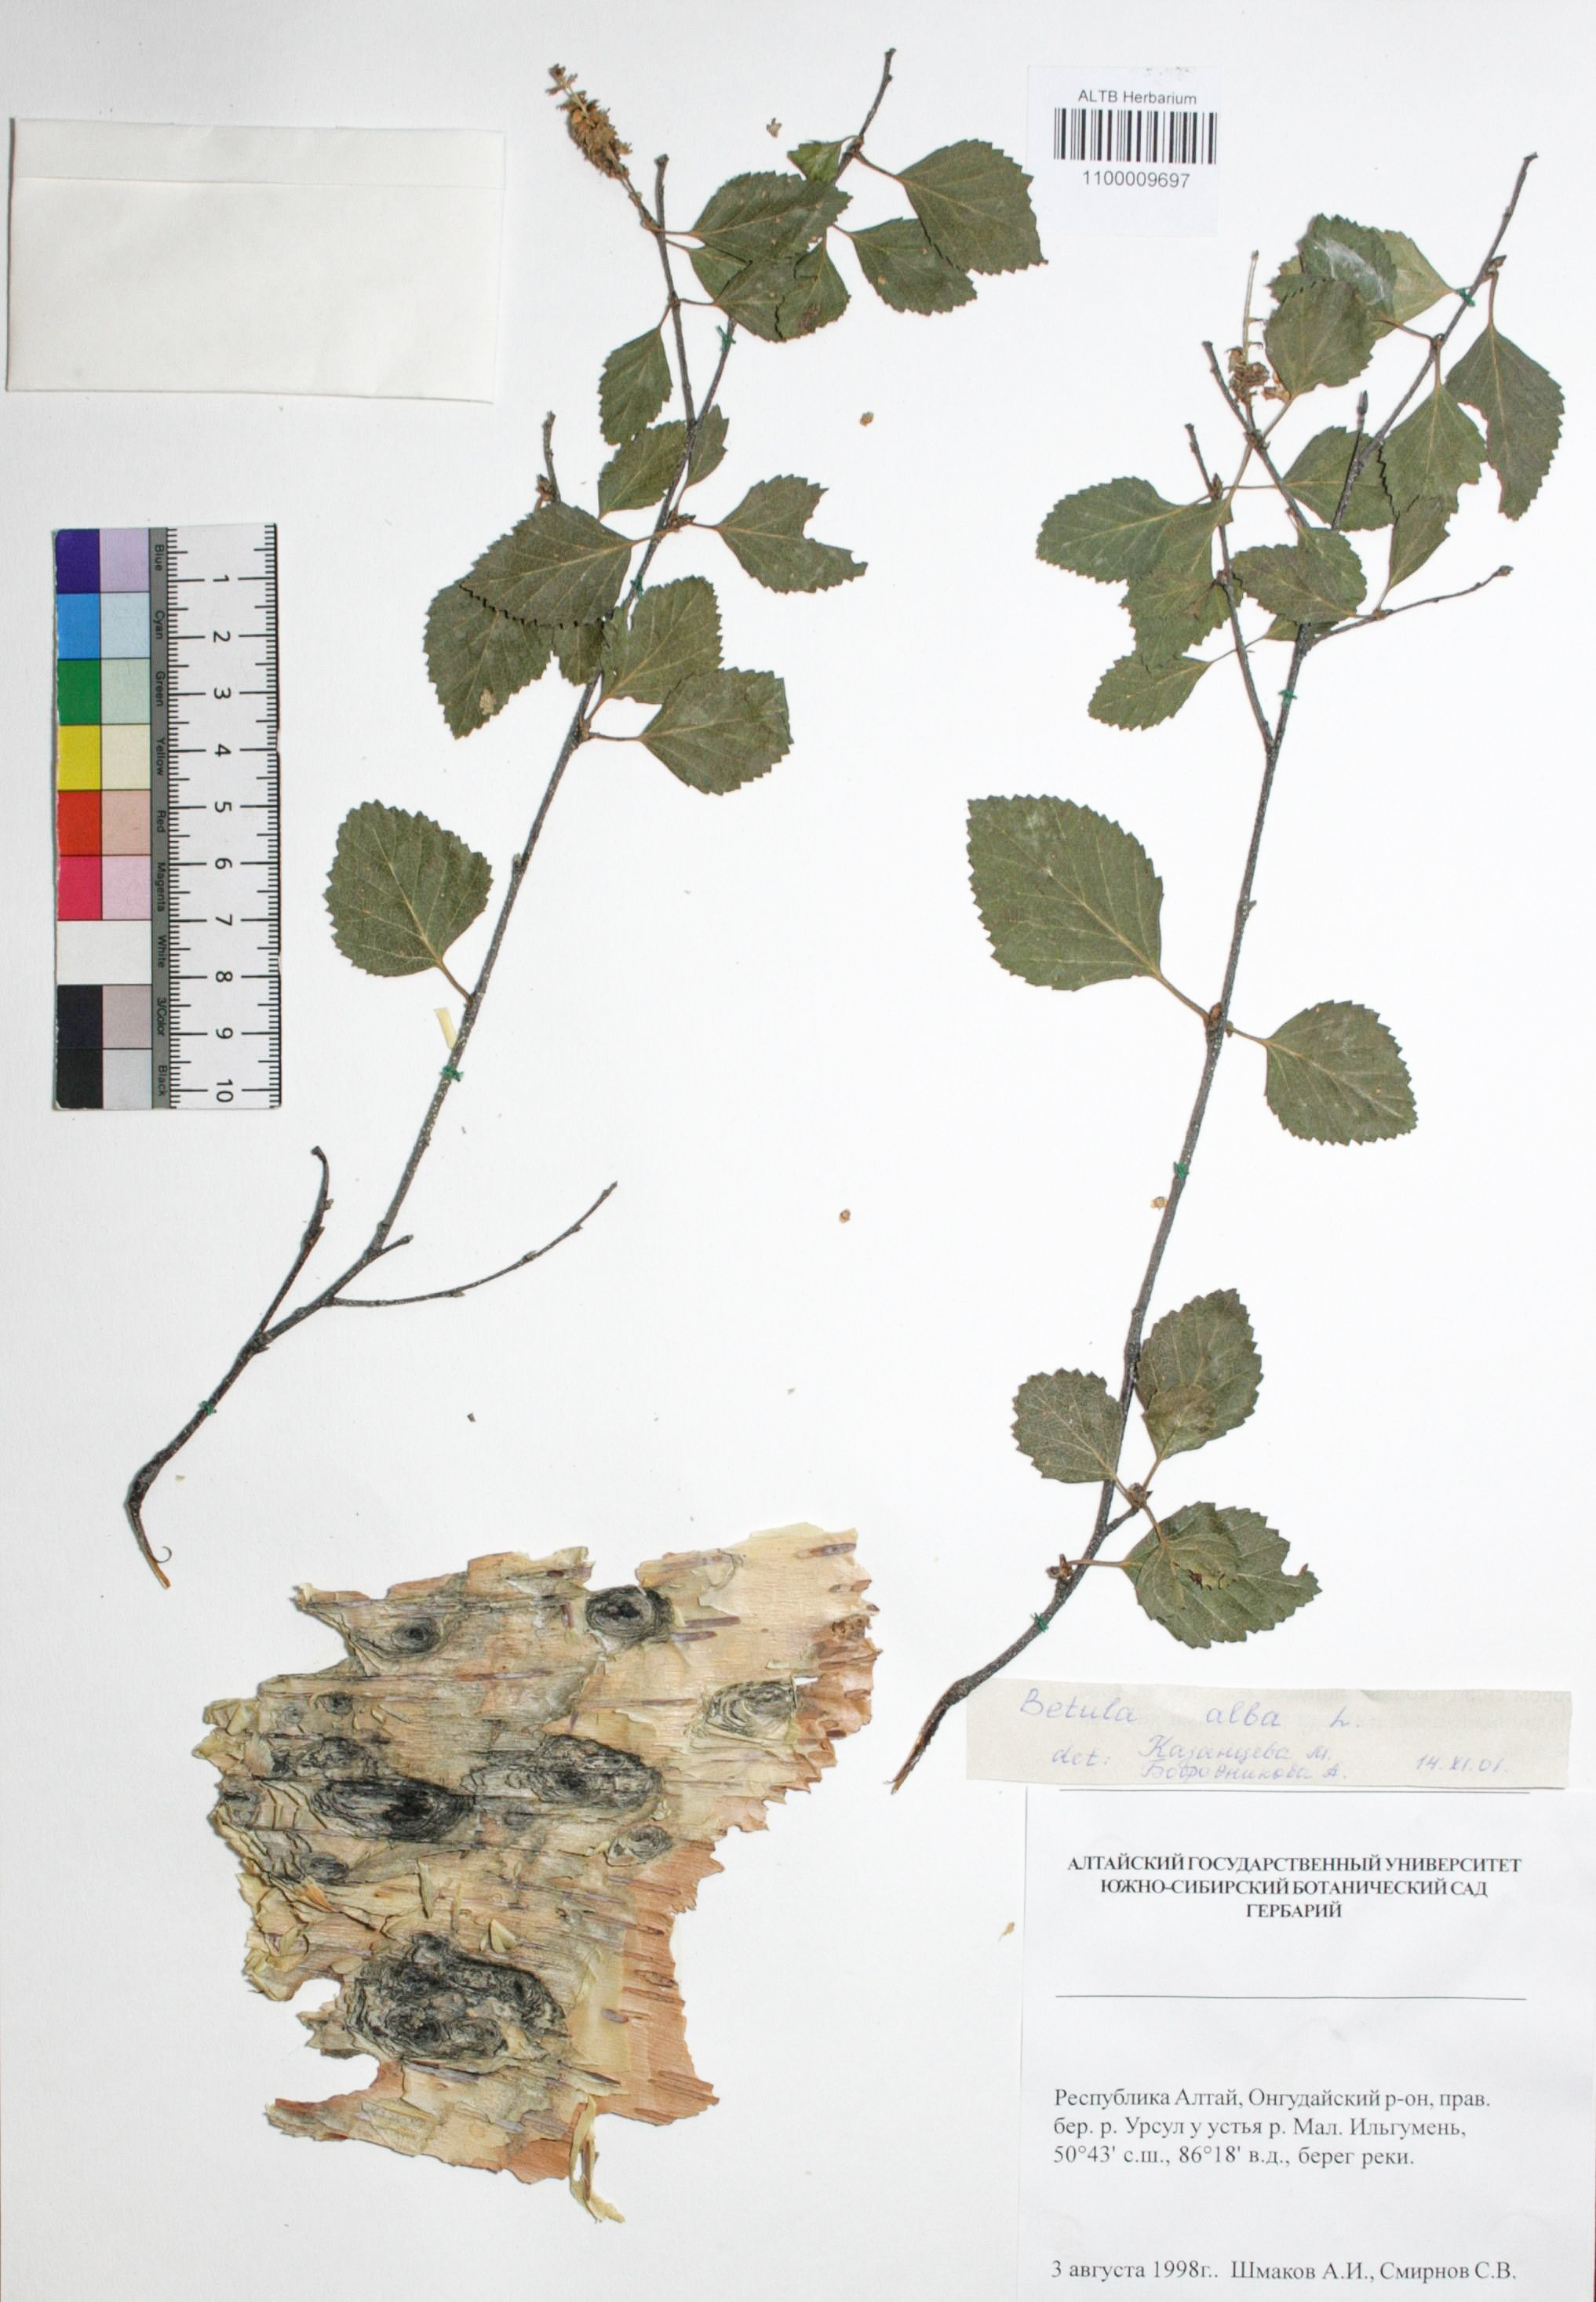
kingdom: Plantae
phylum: Tracheophyta
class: Magnoliopsida
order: Fagales
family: Betulaceae
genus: Betula
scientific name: Betula pubescens
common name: Downy birch
